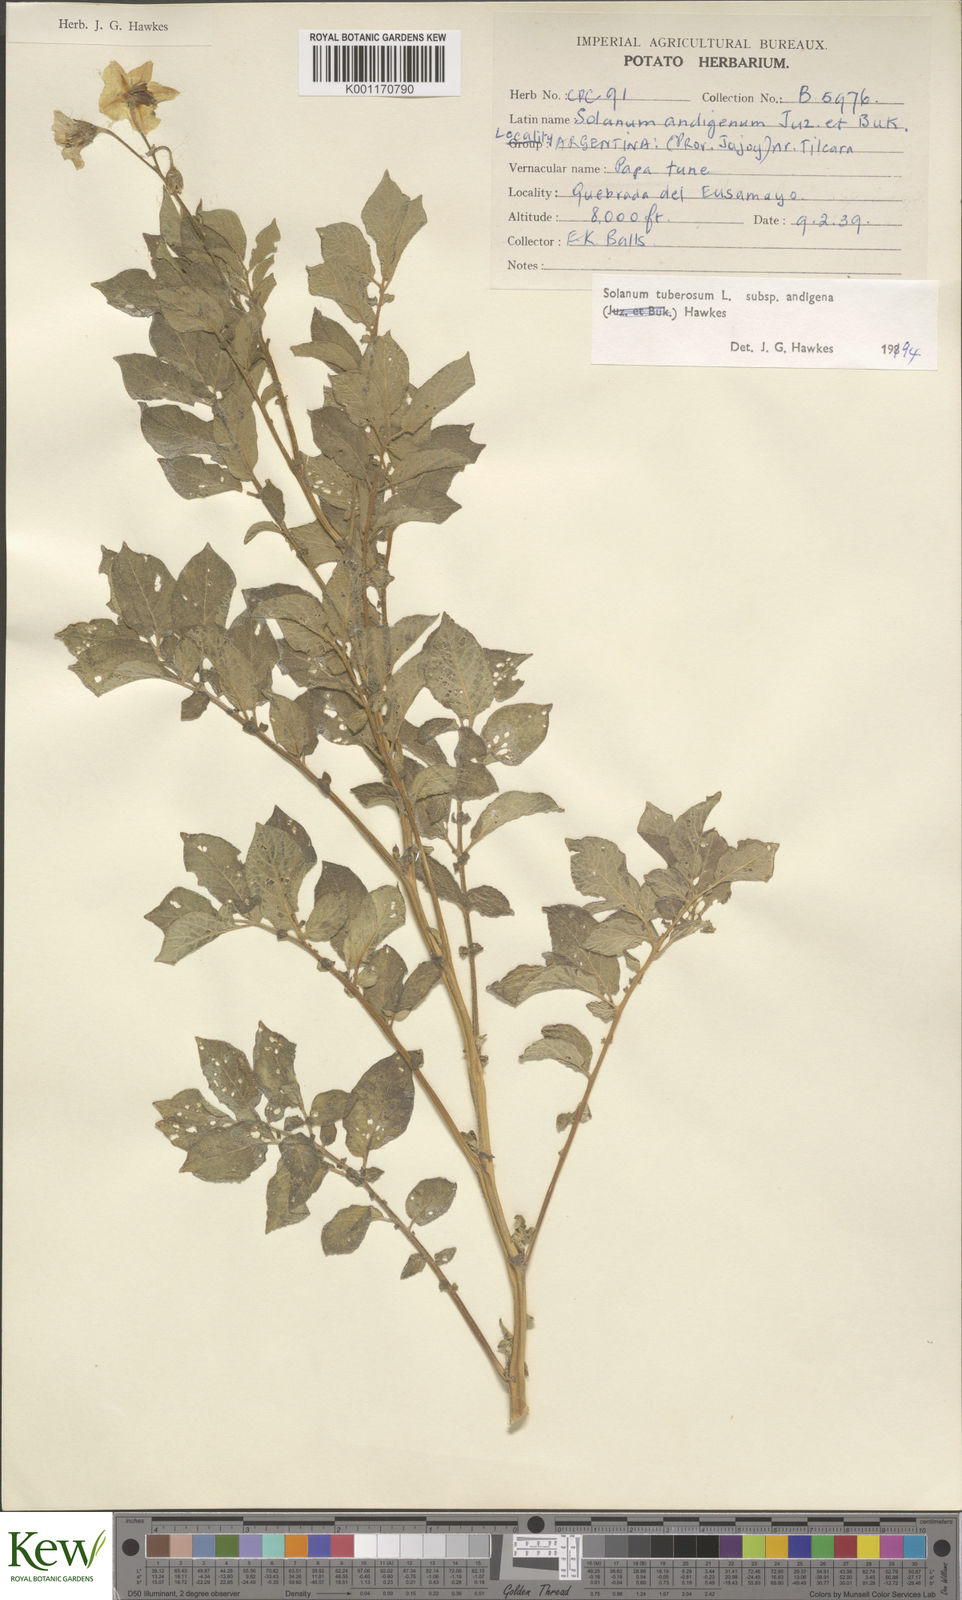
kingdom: Plantae
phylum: Tracheophyta
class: Magnoliopsida
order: Solanales
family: Solanaceae
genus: Solanum
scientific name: Solanum tuberosum
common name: Potato
